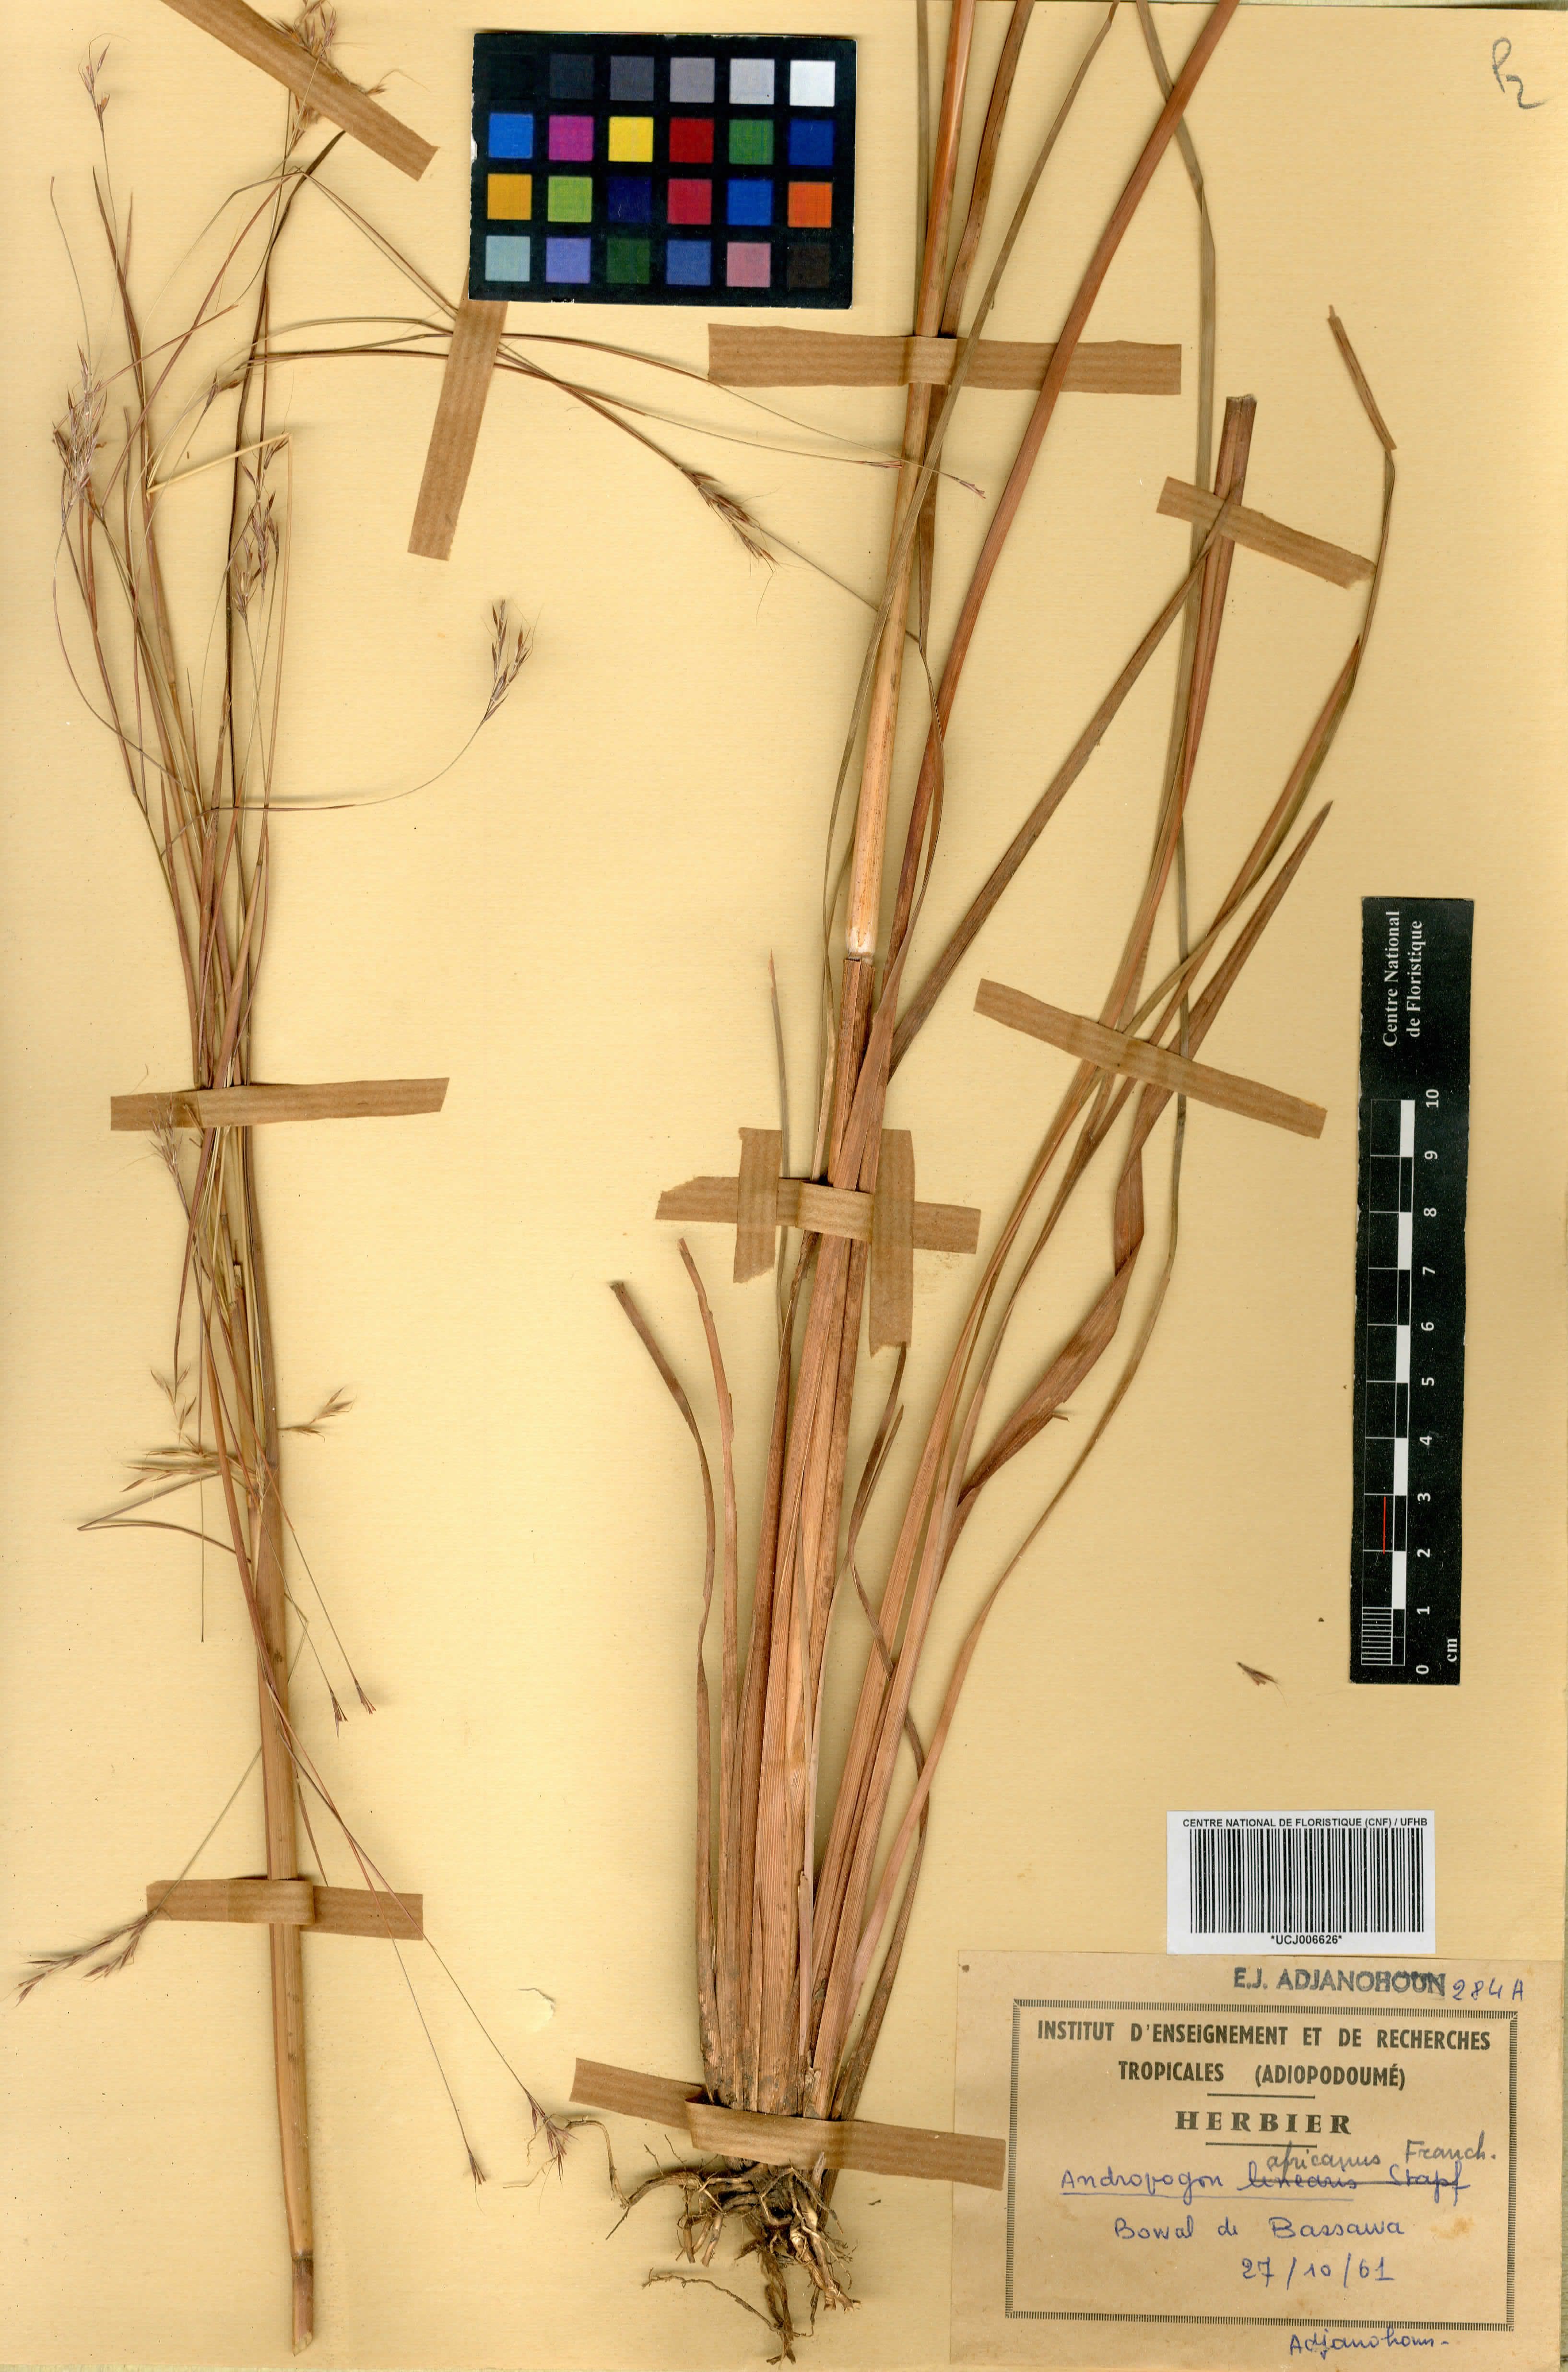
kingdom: Plantae
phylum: Tracheophyta
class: Liliopsida
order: Poales
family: Poaceae
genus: Andropogon
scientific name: Andropogon africanus
